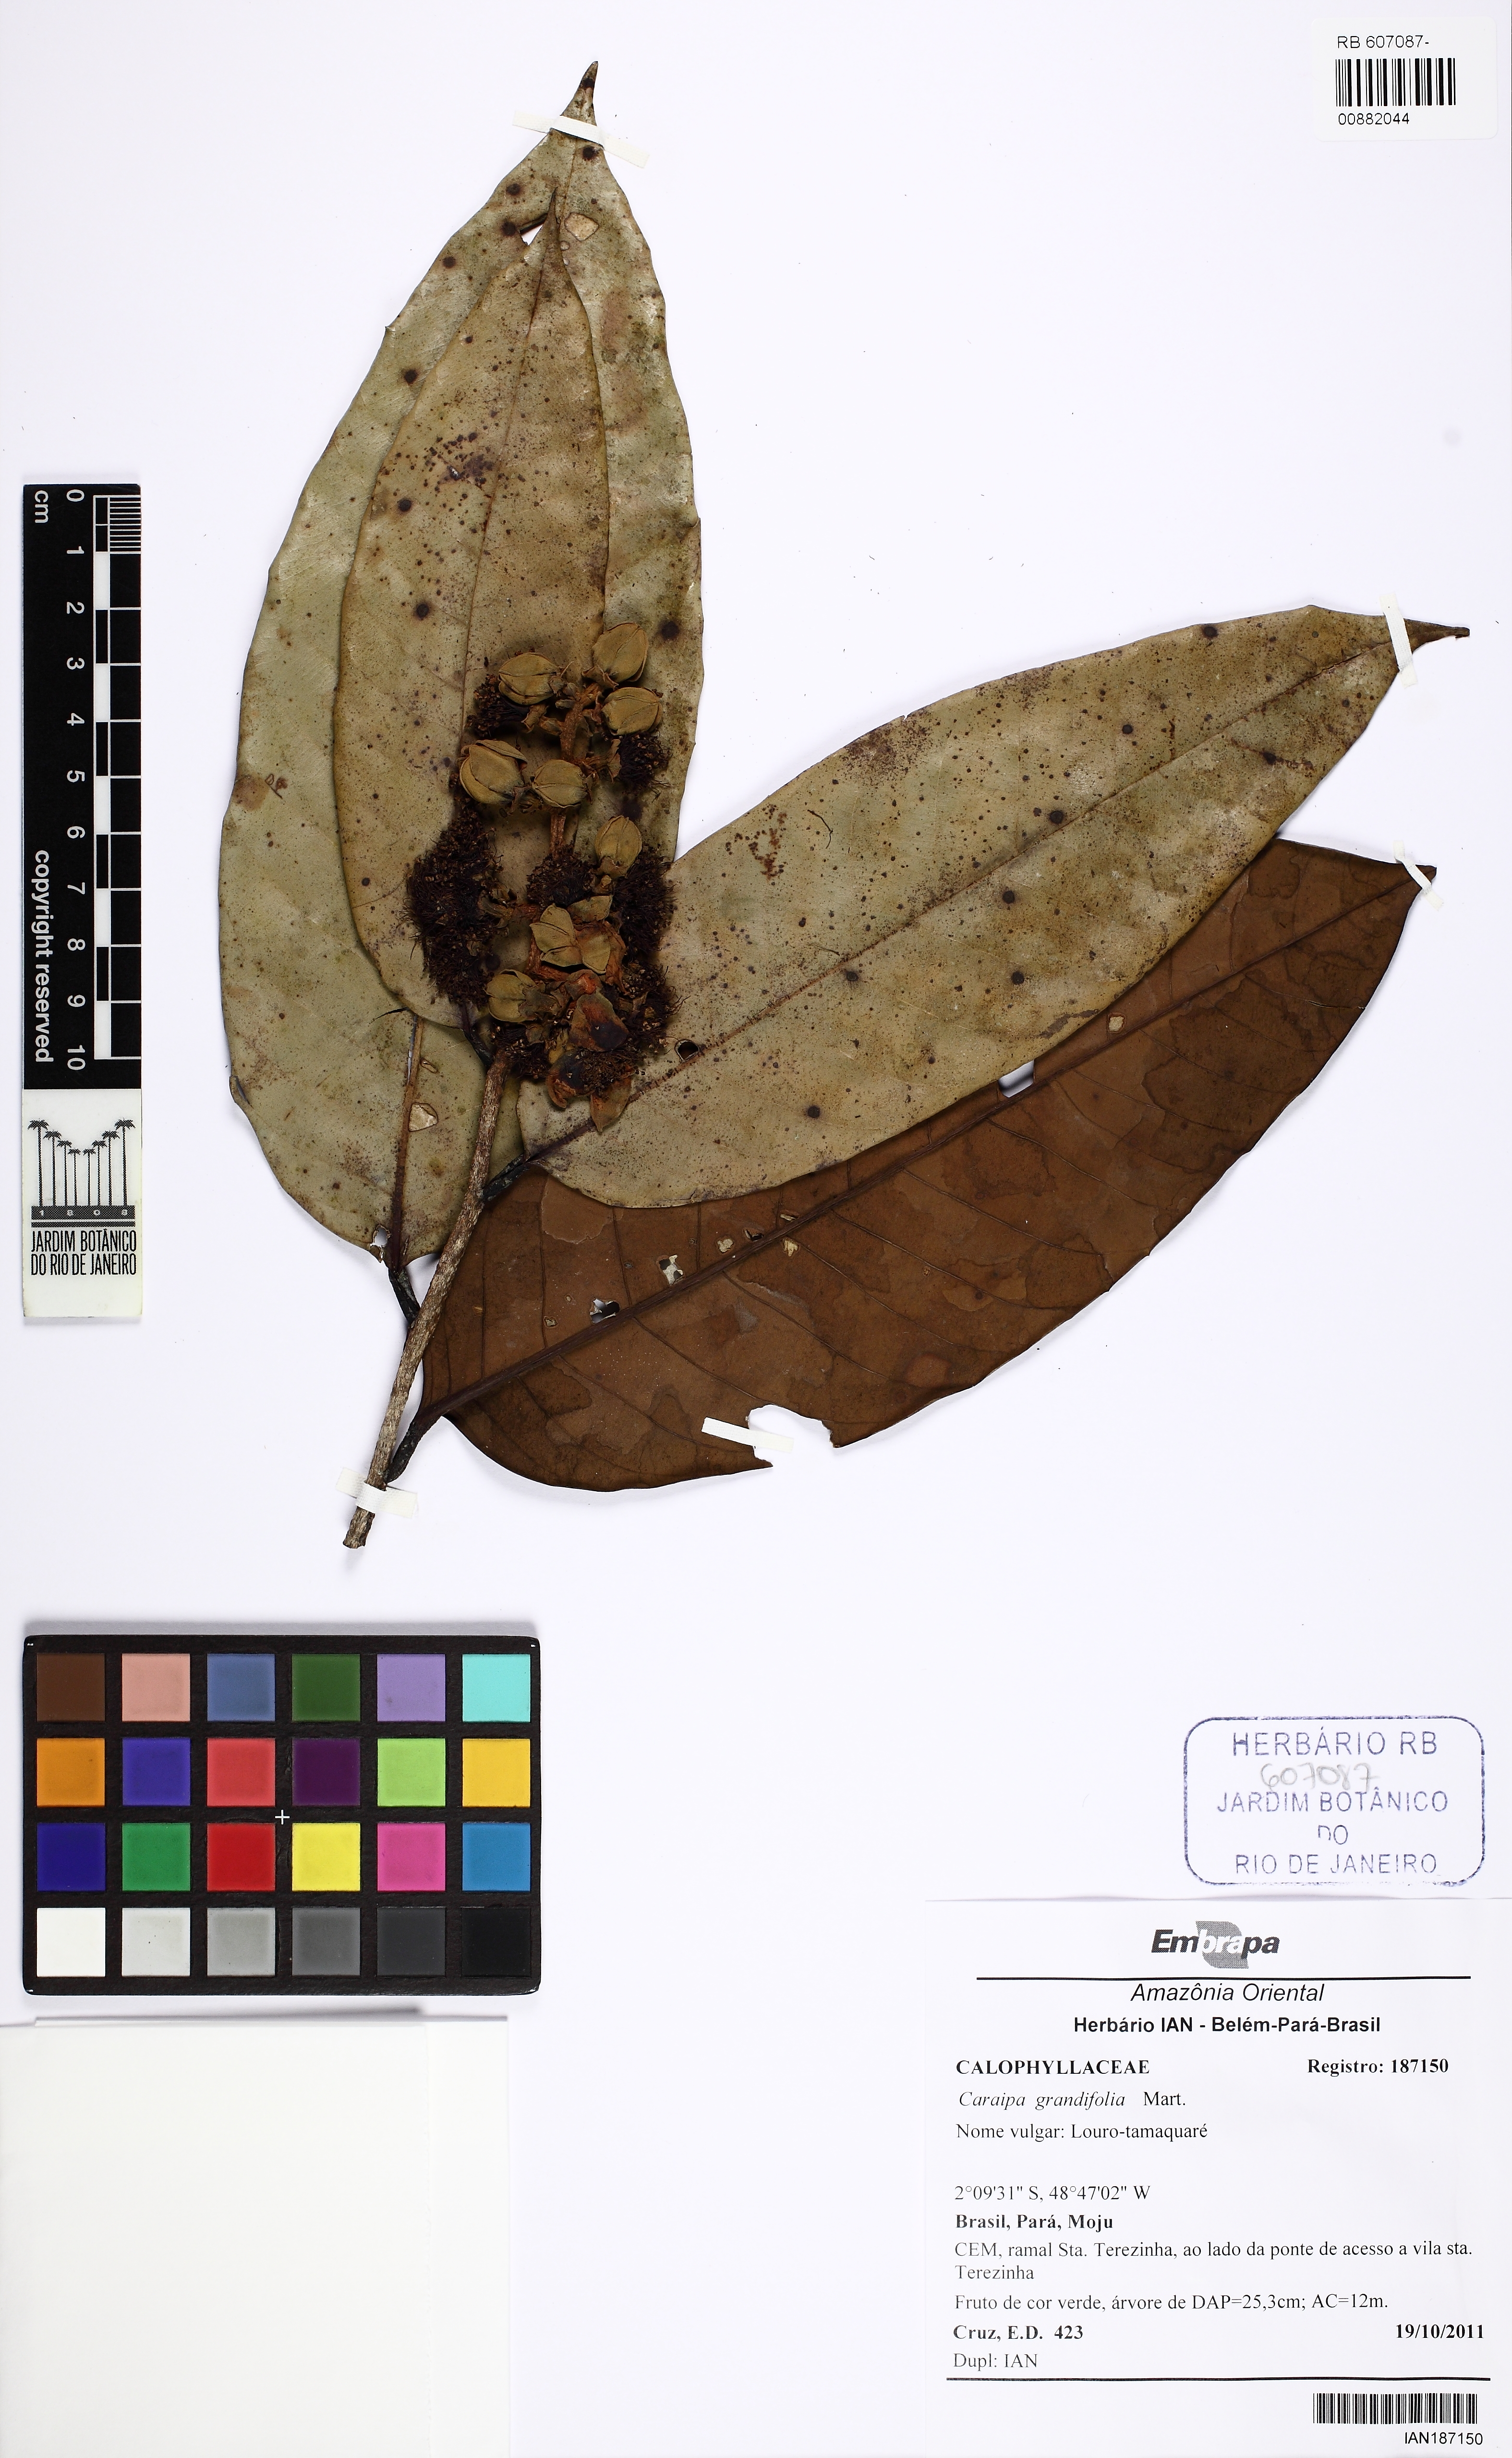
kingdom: Plantae
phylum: Tracheophyta
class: Magnoliopsida
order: Malpighiales
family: Calophyllaceae
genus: Caraipa
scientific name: Caraipa grandifolia
